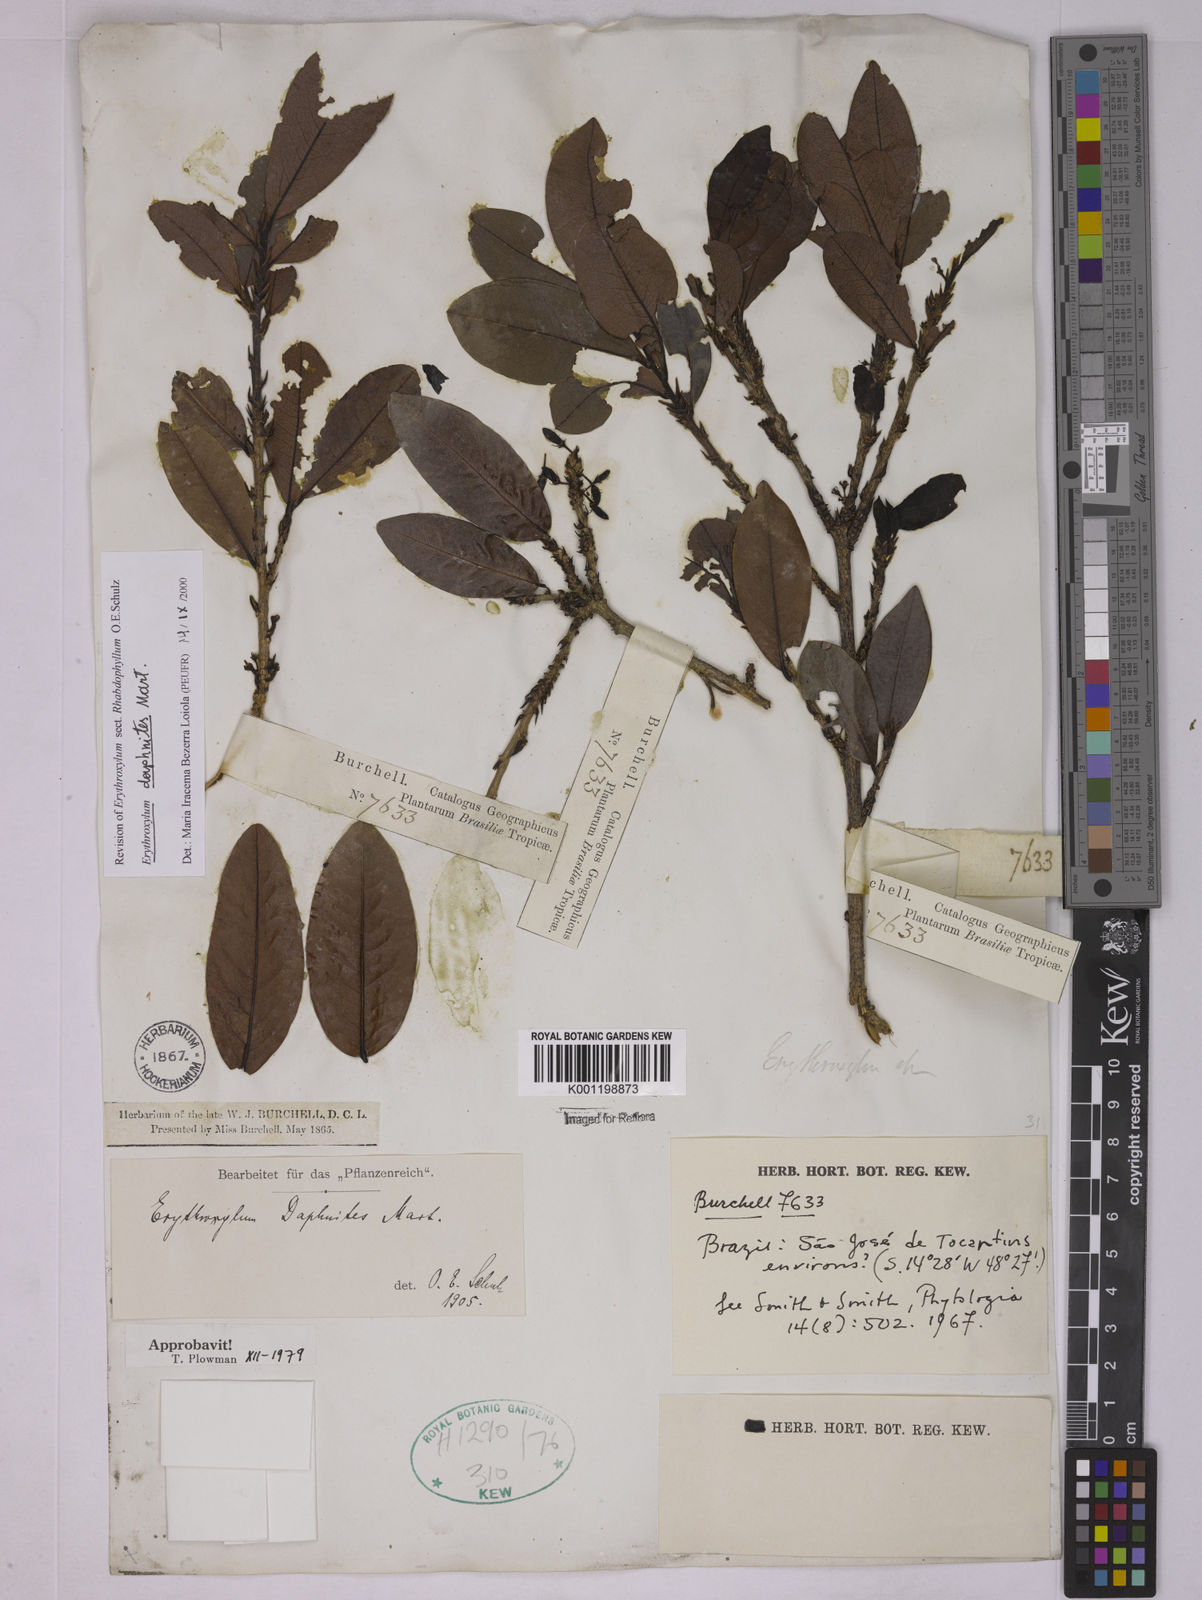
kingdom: Plantae
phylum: Tracheophyta
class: Magnoliopsida
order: Malpighiales
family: Erythroxylaceae
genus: Erythroxylum
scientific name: Erythroxylum daphnites
